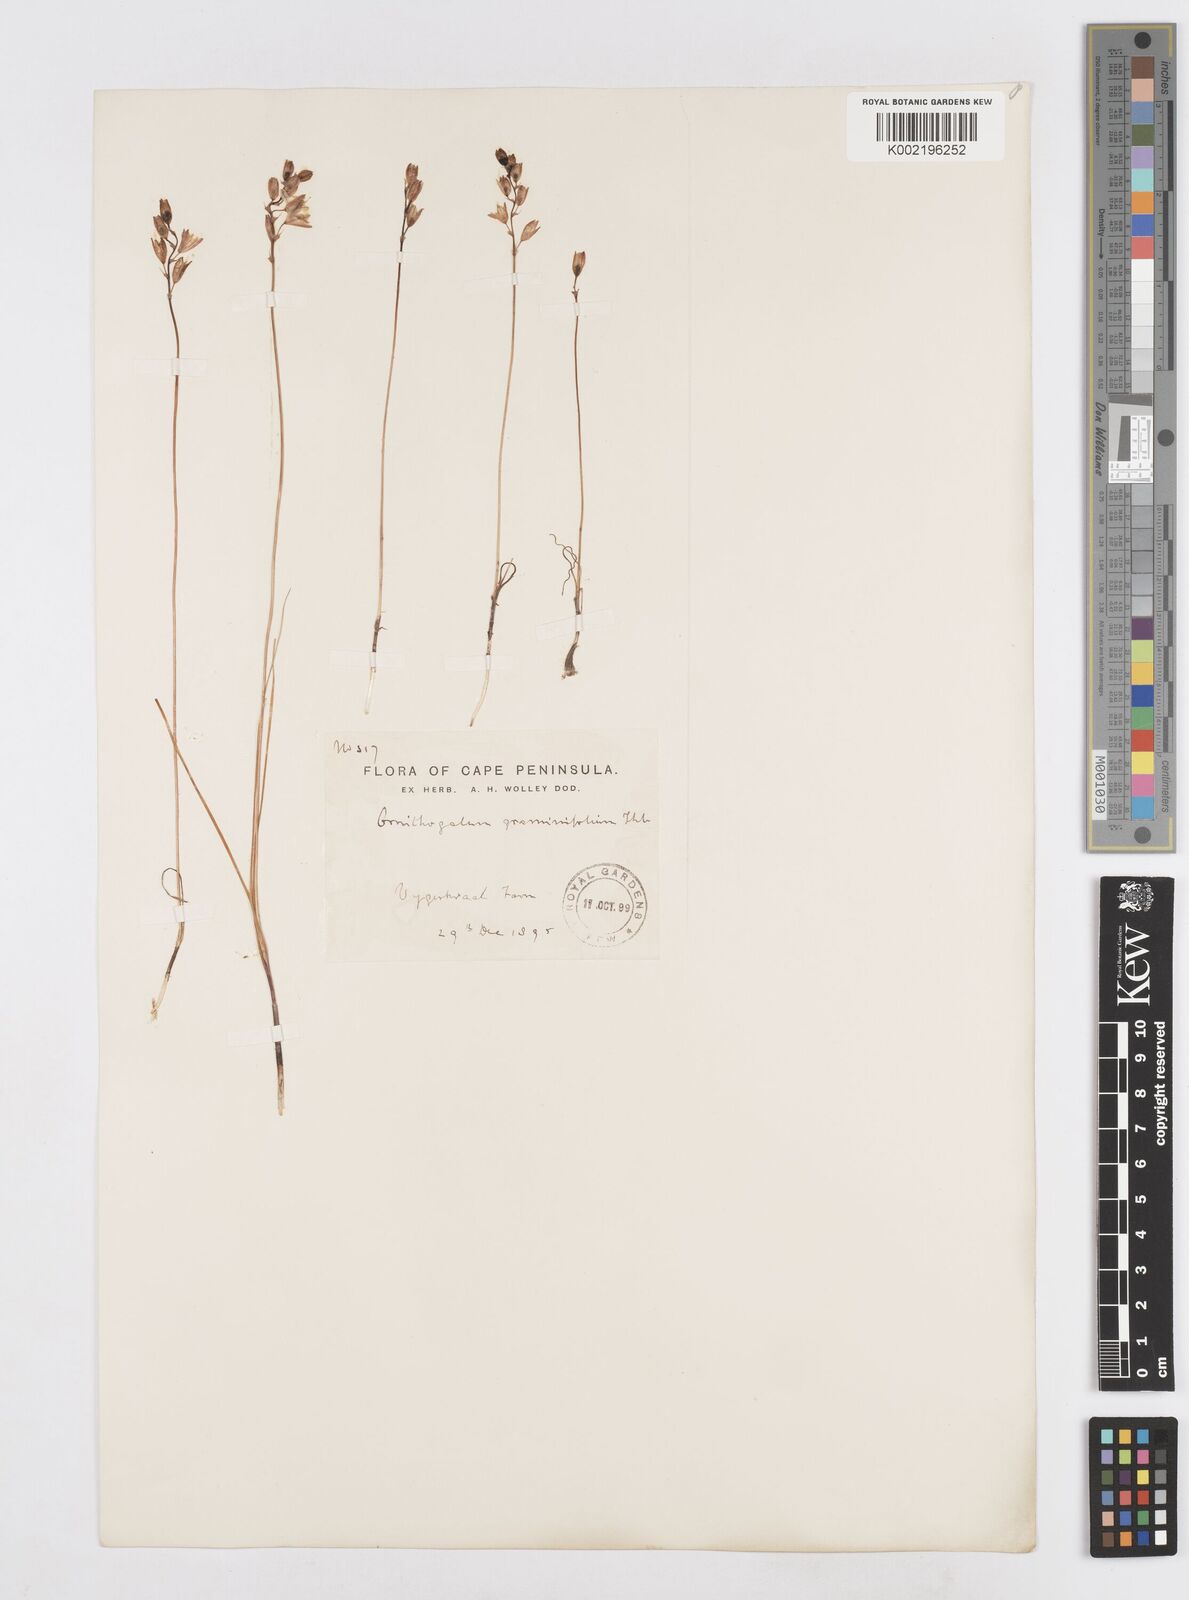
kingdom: Plantae
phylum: Tracheophyta
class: Liliopsida
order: Asparagales
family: Asparagaceae
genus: Ornithogalum
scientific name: Ornithogalum graminifolium
